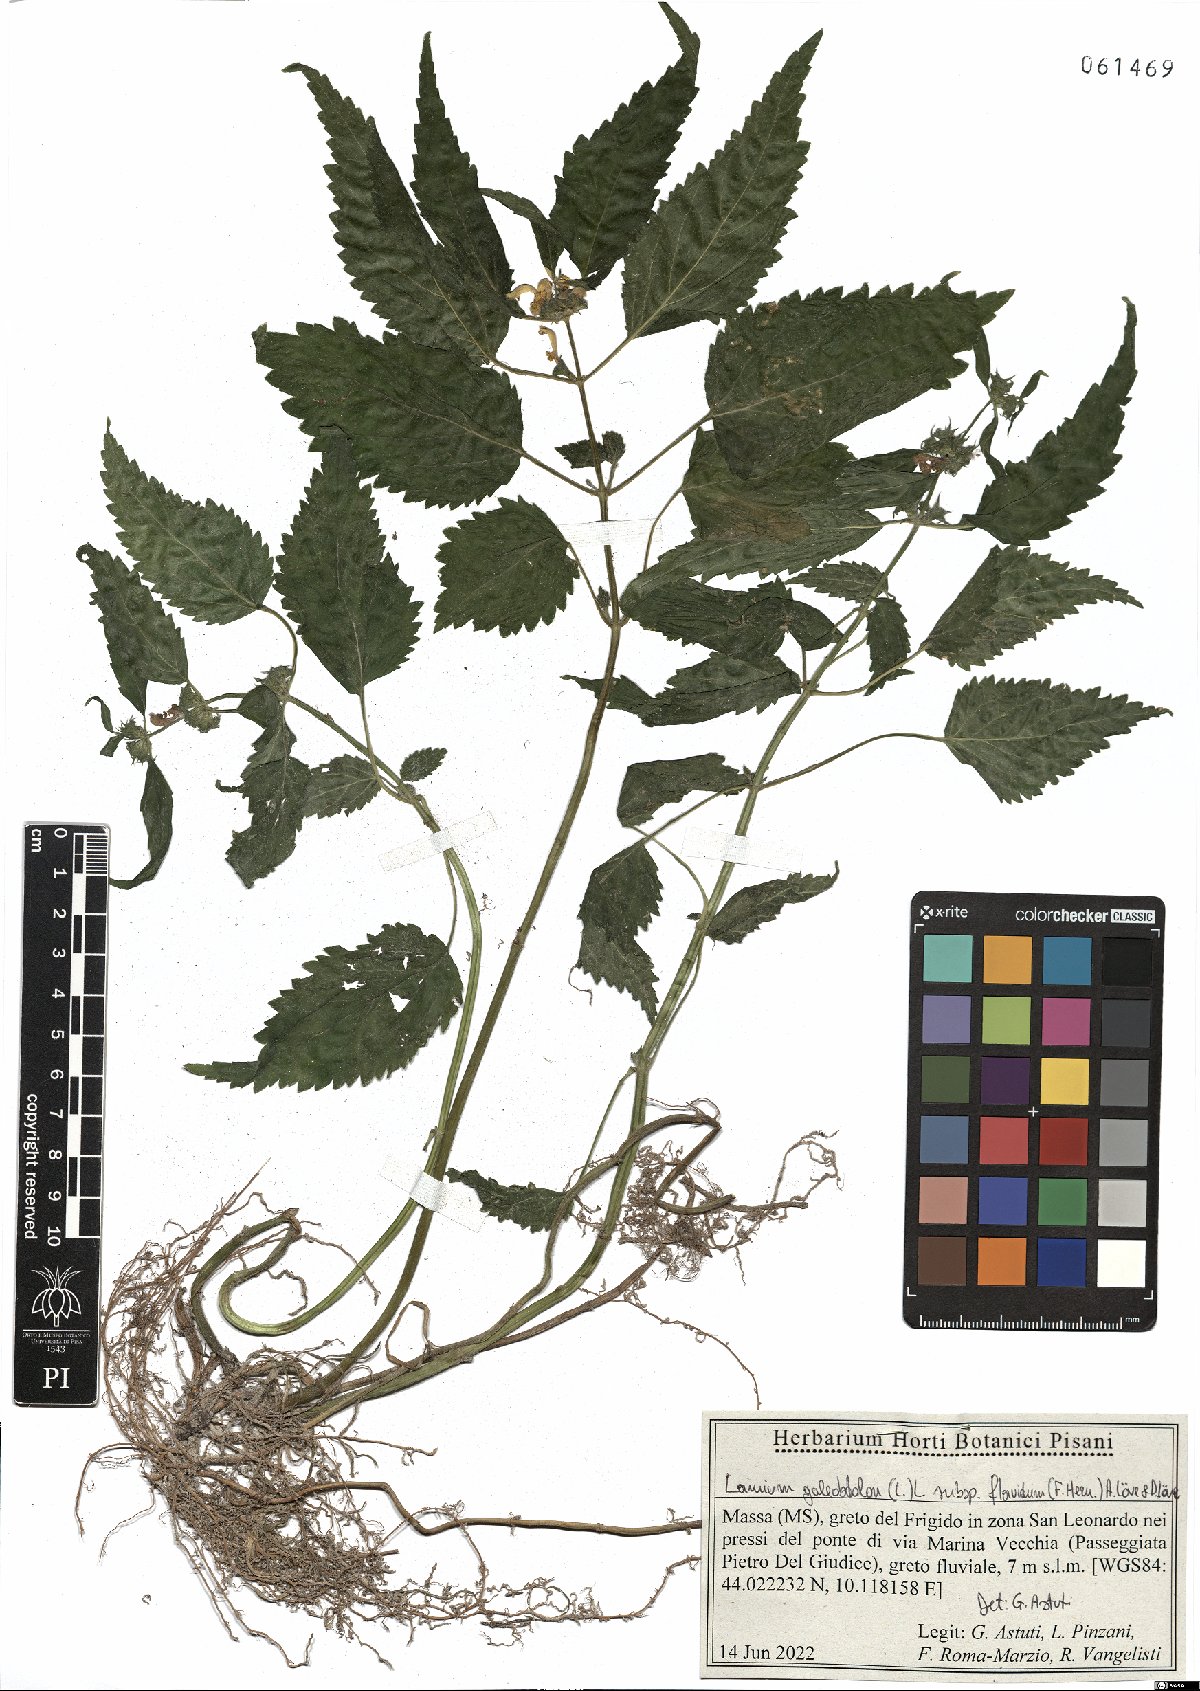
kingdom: Plantae
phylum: Tracheophyta
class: Magnoliopsida
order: Lamiales
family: Lamiaceae
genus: Lamium
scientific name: Lamium galeobdolon
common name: Yellow archangel
